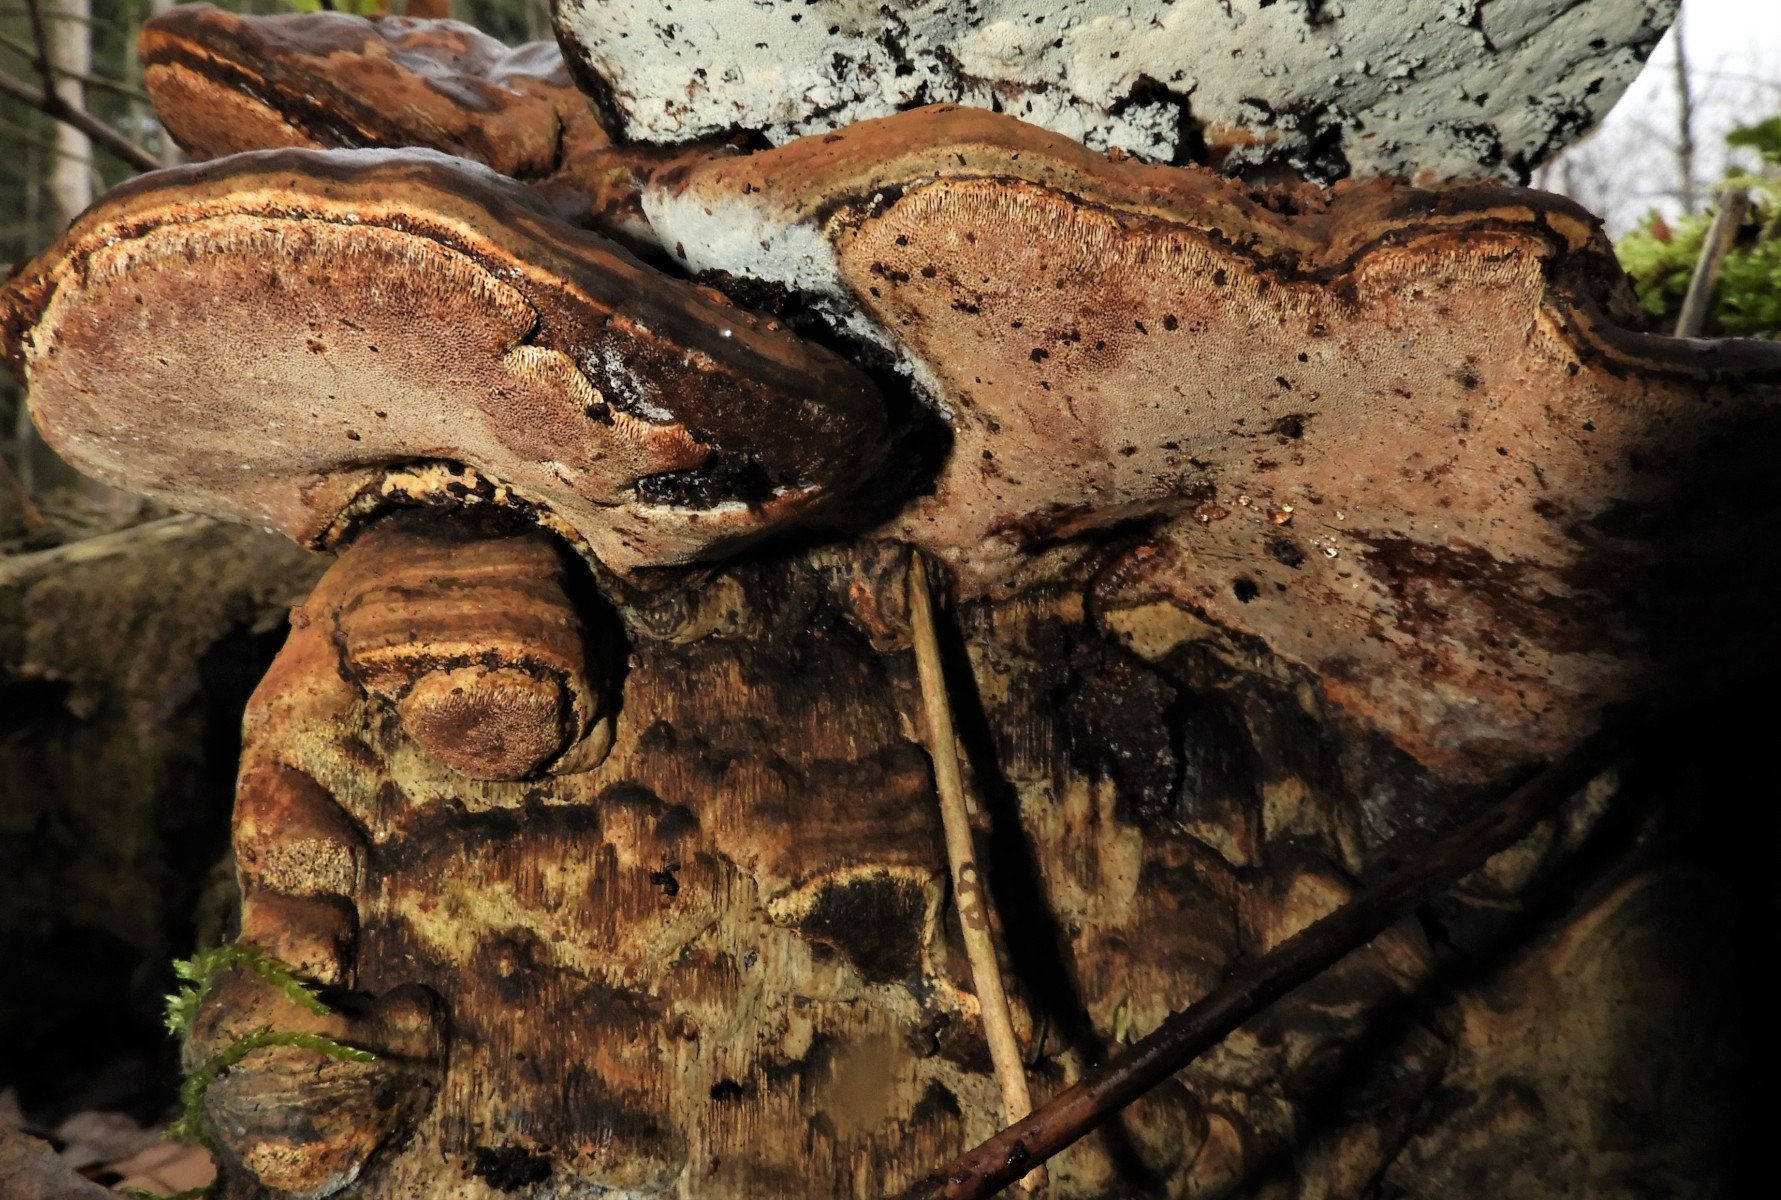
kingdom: Fungi
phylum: Basidiomycota
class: Agaricomycetes
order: Polyporales
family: Polyporaceae
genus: Ganoderma
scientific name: Ganoderma applanatum
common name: flad lakporesvamp
